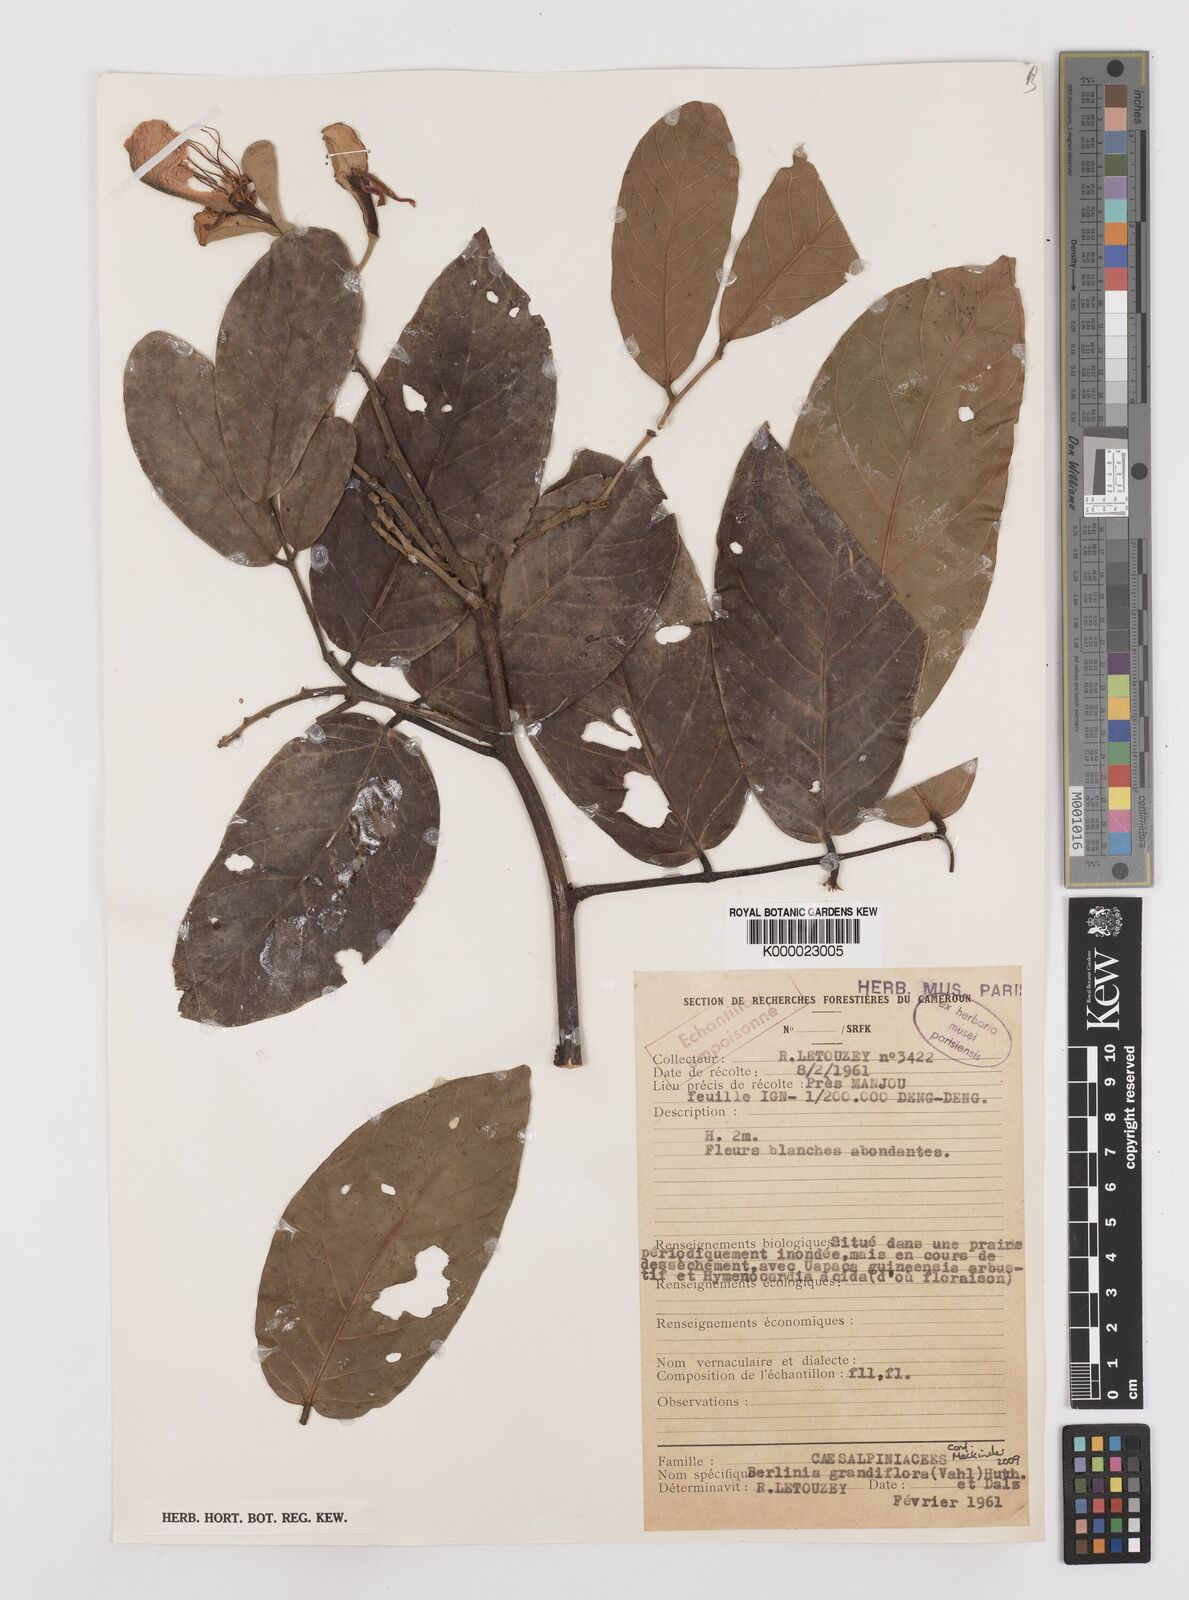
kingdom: Plantae
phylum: Tracheophyta
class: Magnoliopsida
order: Fabales
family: Fabaceae
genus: Berlinia
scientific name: Berlinia grandiflora
